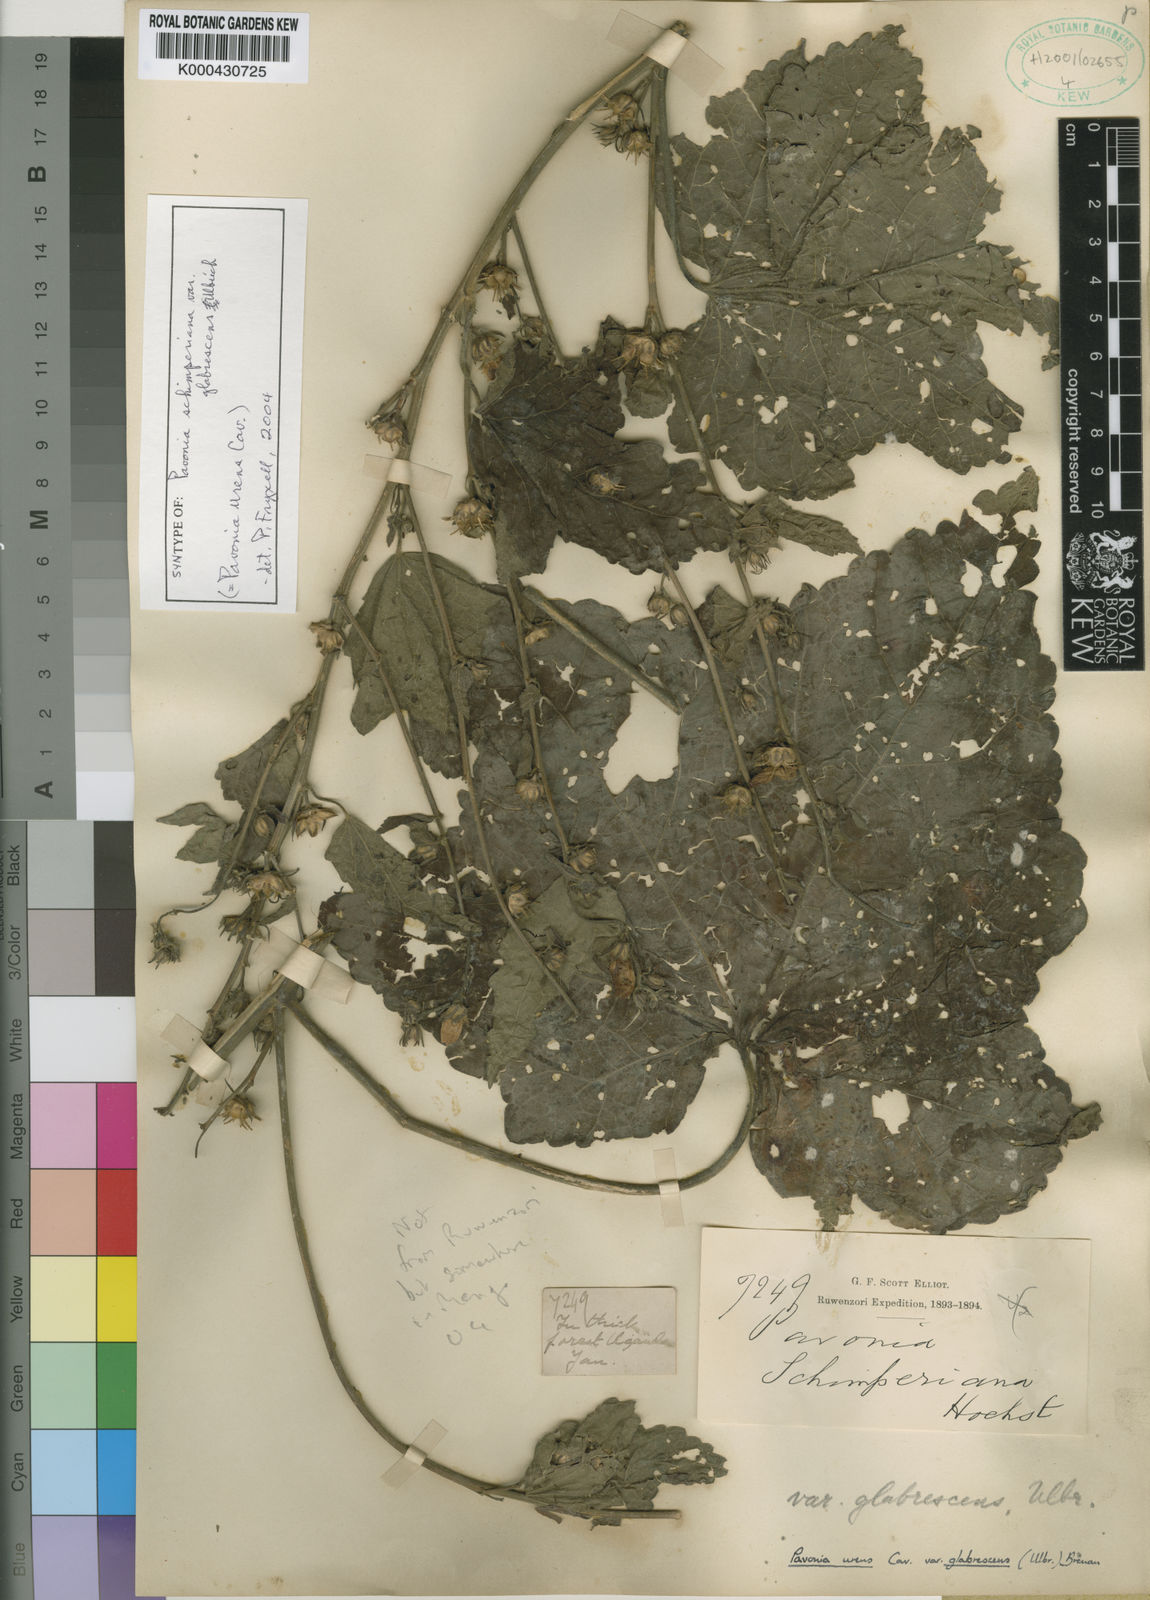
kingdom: Plantae
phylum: Tracheophyta
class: Magnoliopsida
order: Malvales
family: Malvaceae
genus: Pavonia
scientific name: Pavonia schimperiana
